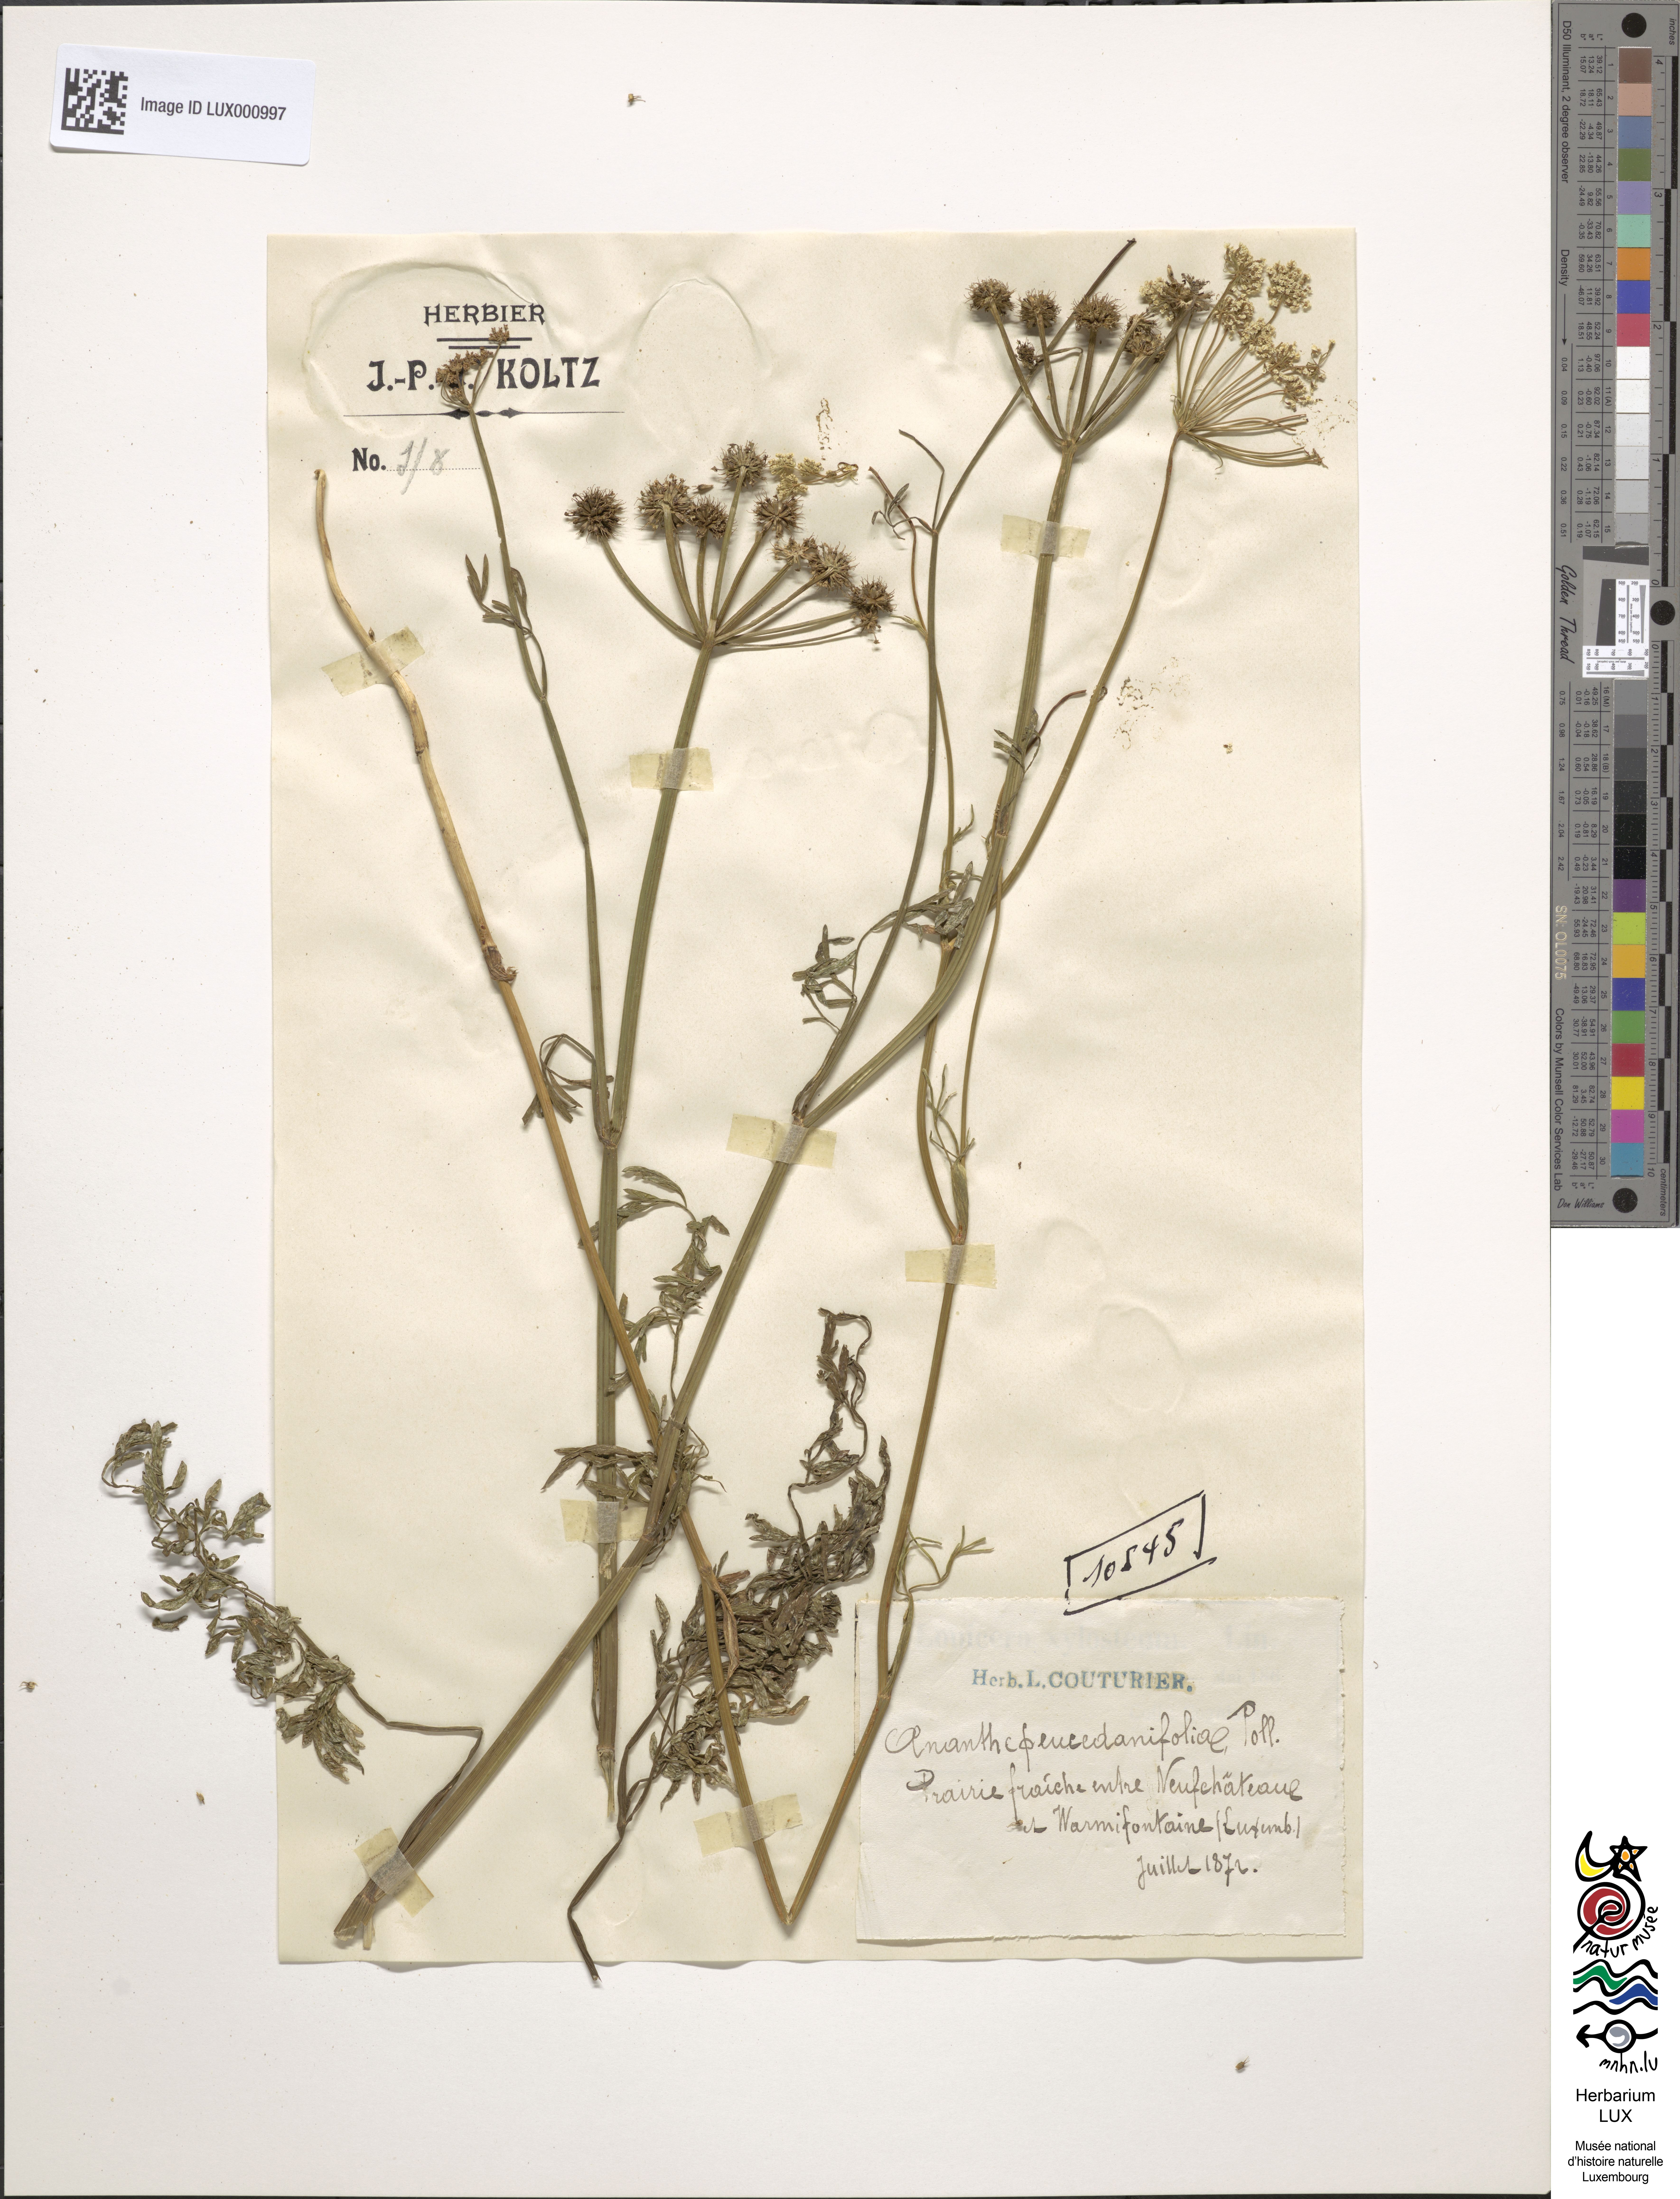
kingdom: Plantae
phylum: Tracheophyta
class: Magnoliopsida
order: Apiales
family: Apiaceae
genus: Oenanthe
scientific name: Oenanthe peucedanifolia
